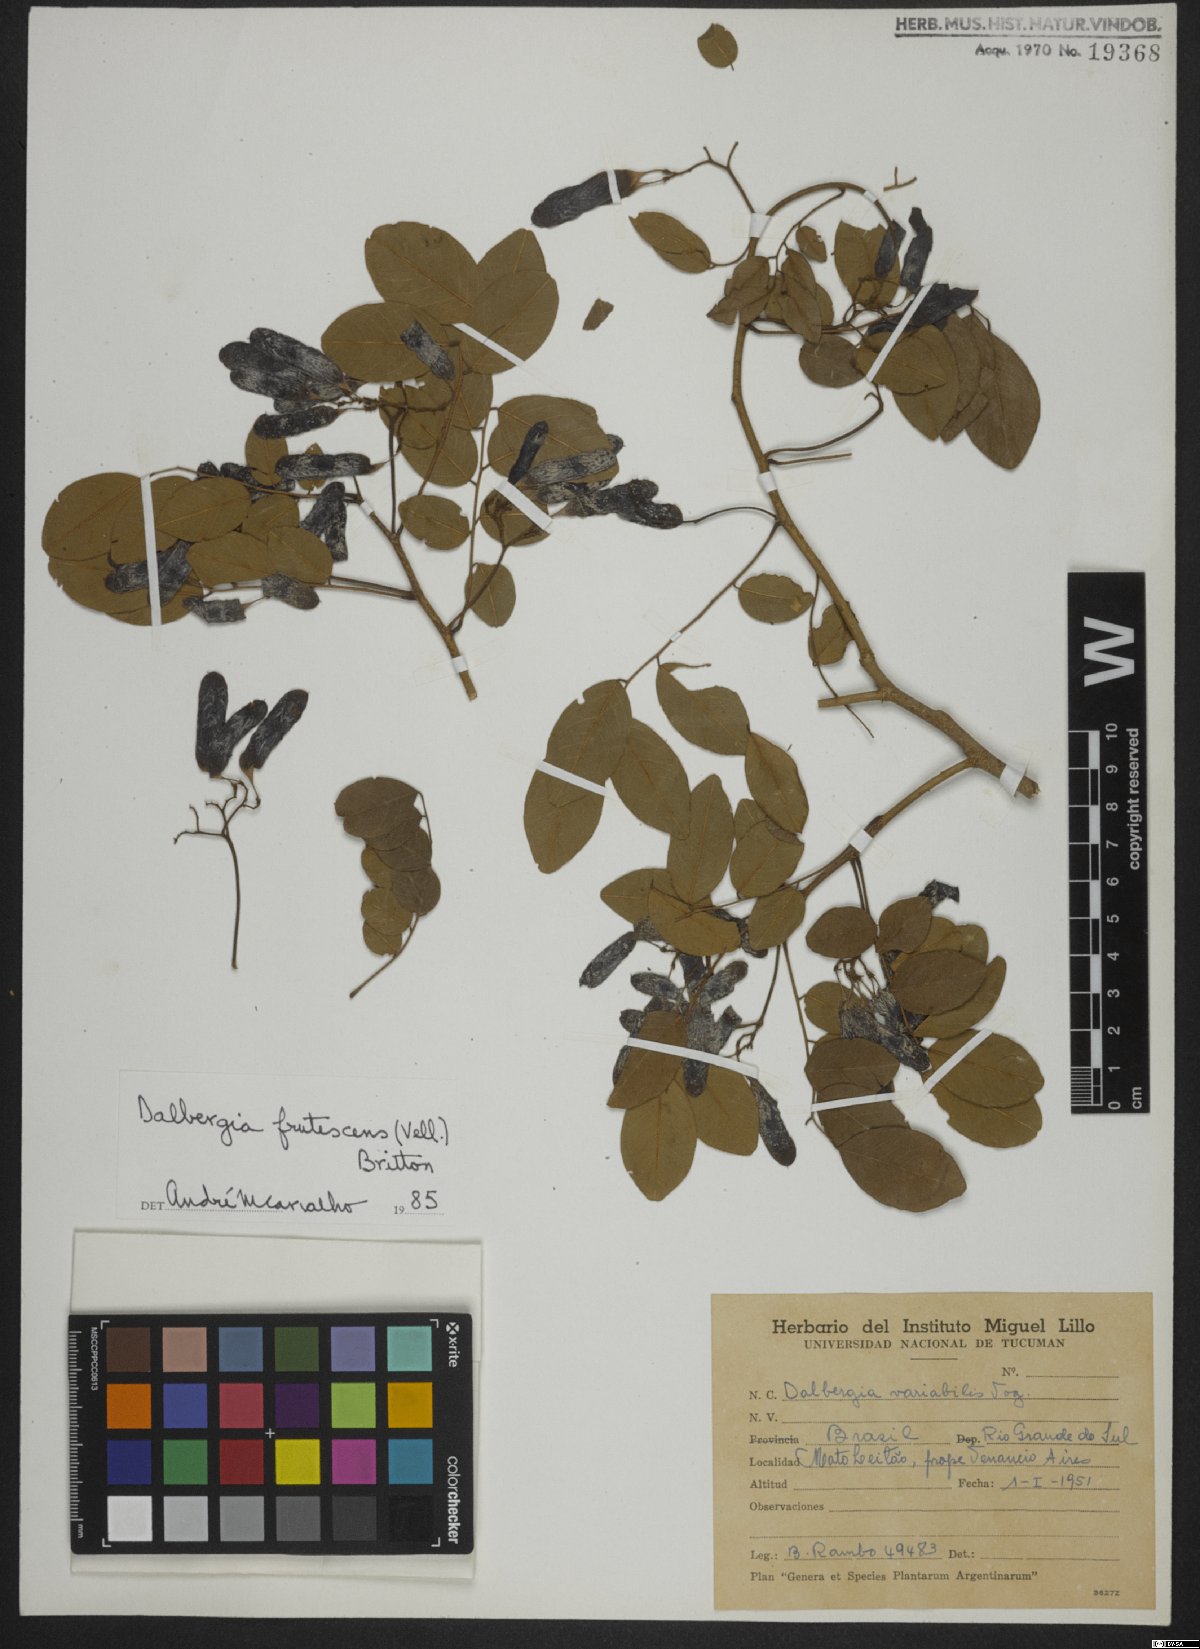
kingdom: Plantae
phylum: Tracheophyta
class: Magnoliopsida
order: Fabales
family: Fabaceae
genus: Dalbergia
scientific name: Dalbergia frutescens
